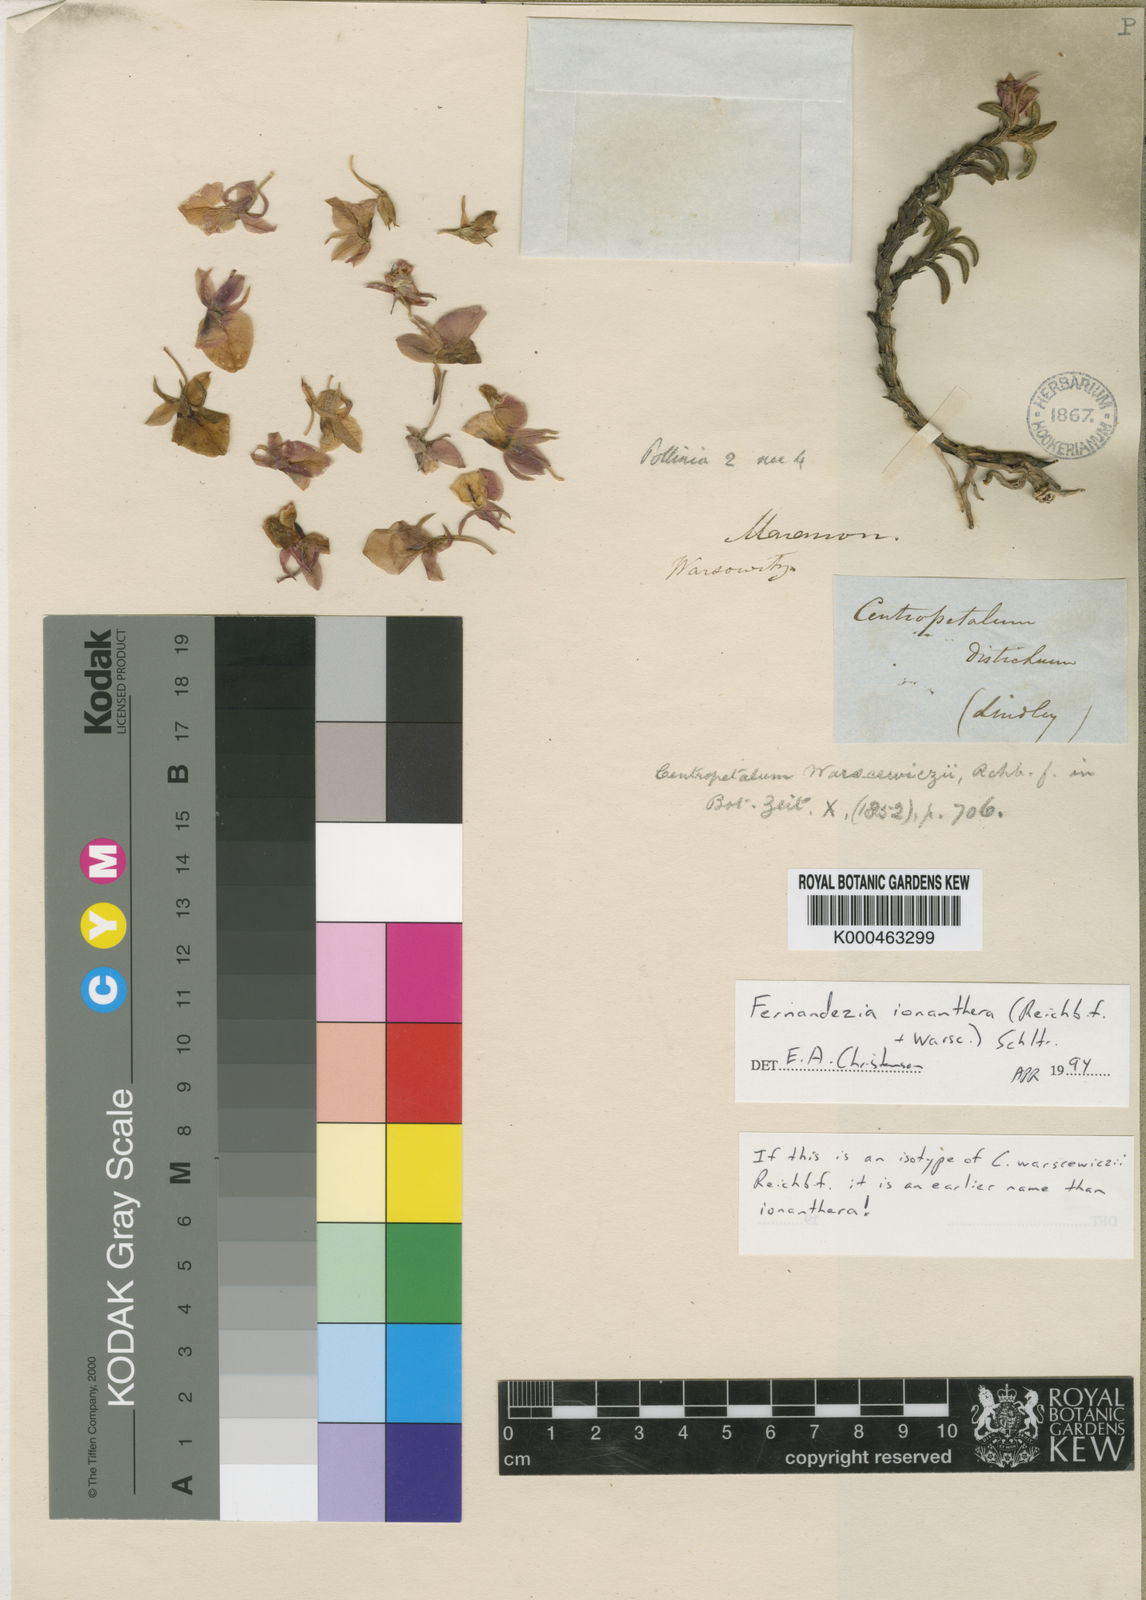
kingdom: Plantae
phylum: Tracheophyta
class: Liliopsida
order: Asparagales
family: Orchidaceae
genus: Fernandezia
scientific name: Fernandezia ionanthera
